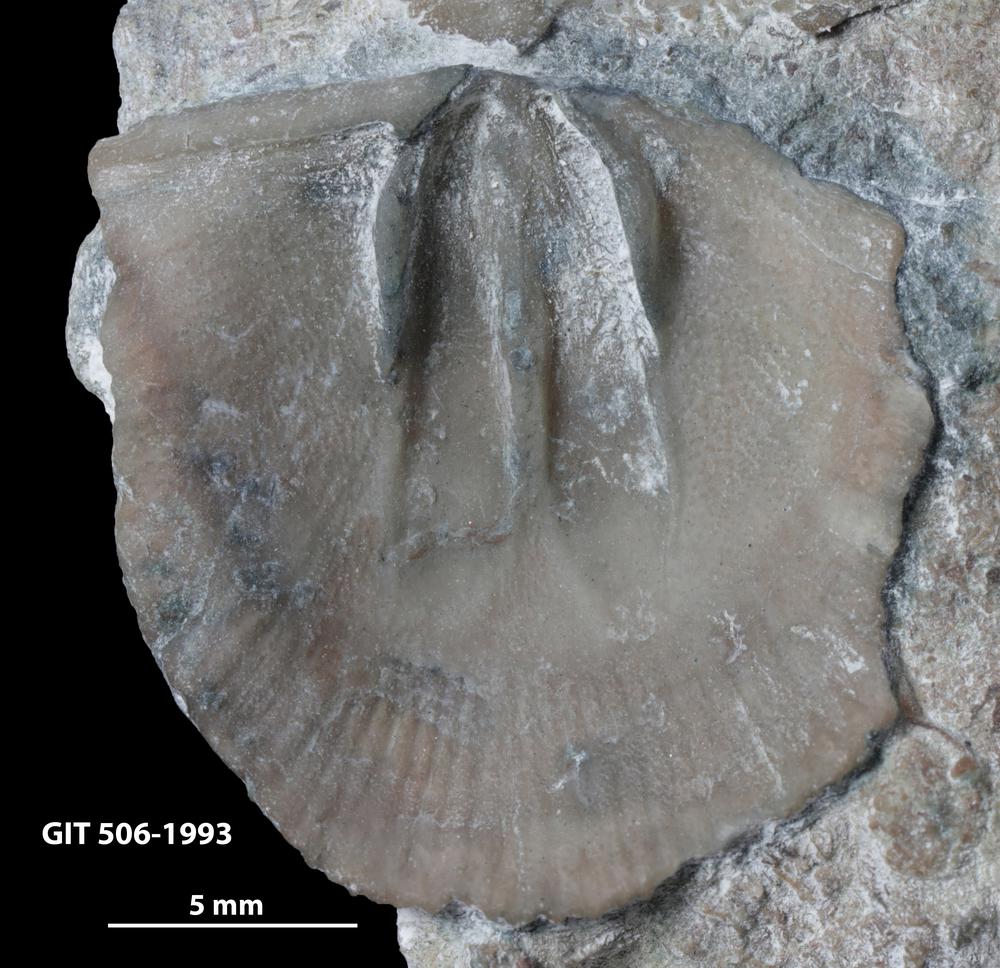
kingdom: Animalia
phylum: Brachiopoda
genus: Janiomya
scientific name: Janiomya Strophomena ornatella
